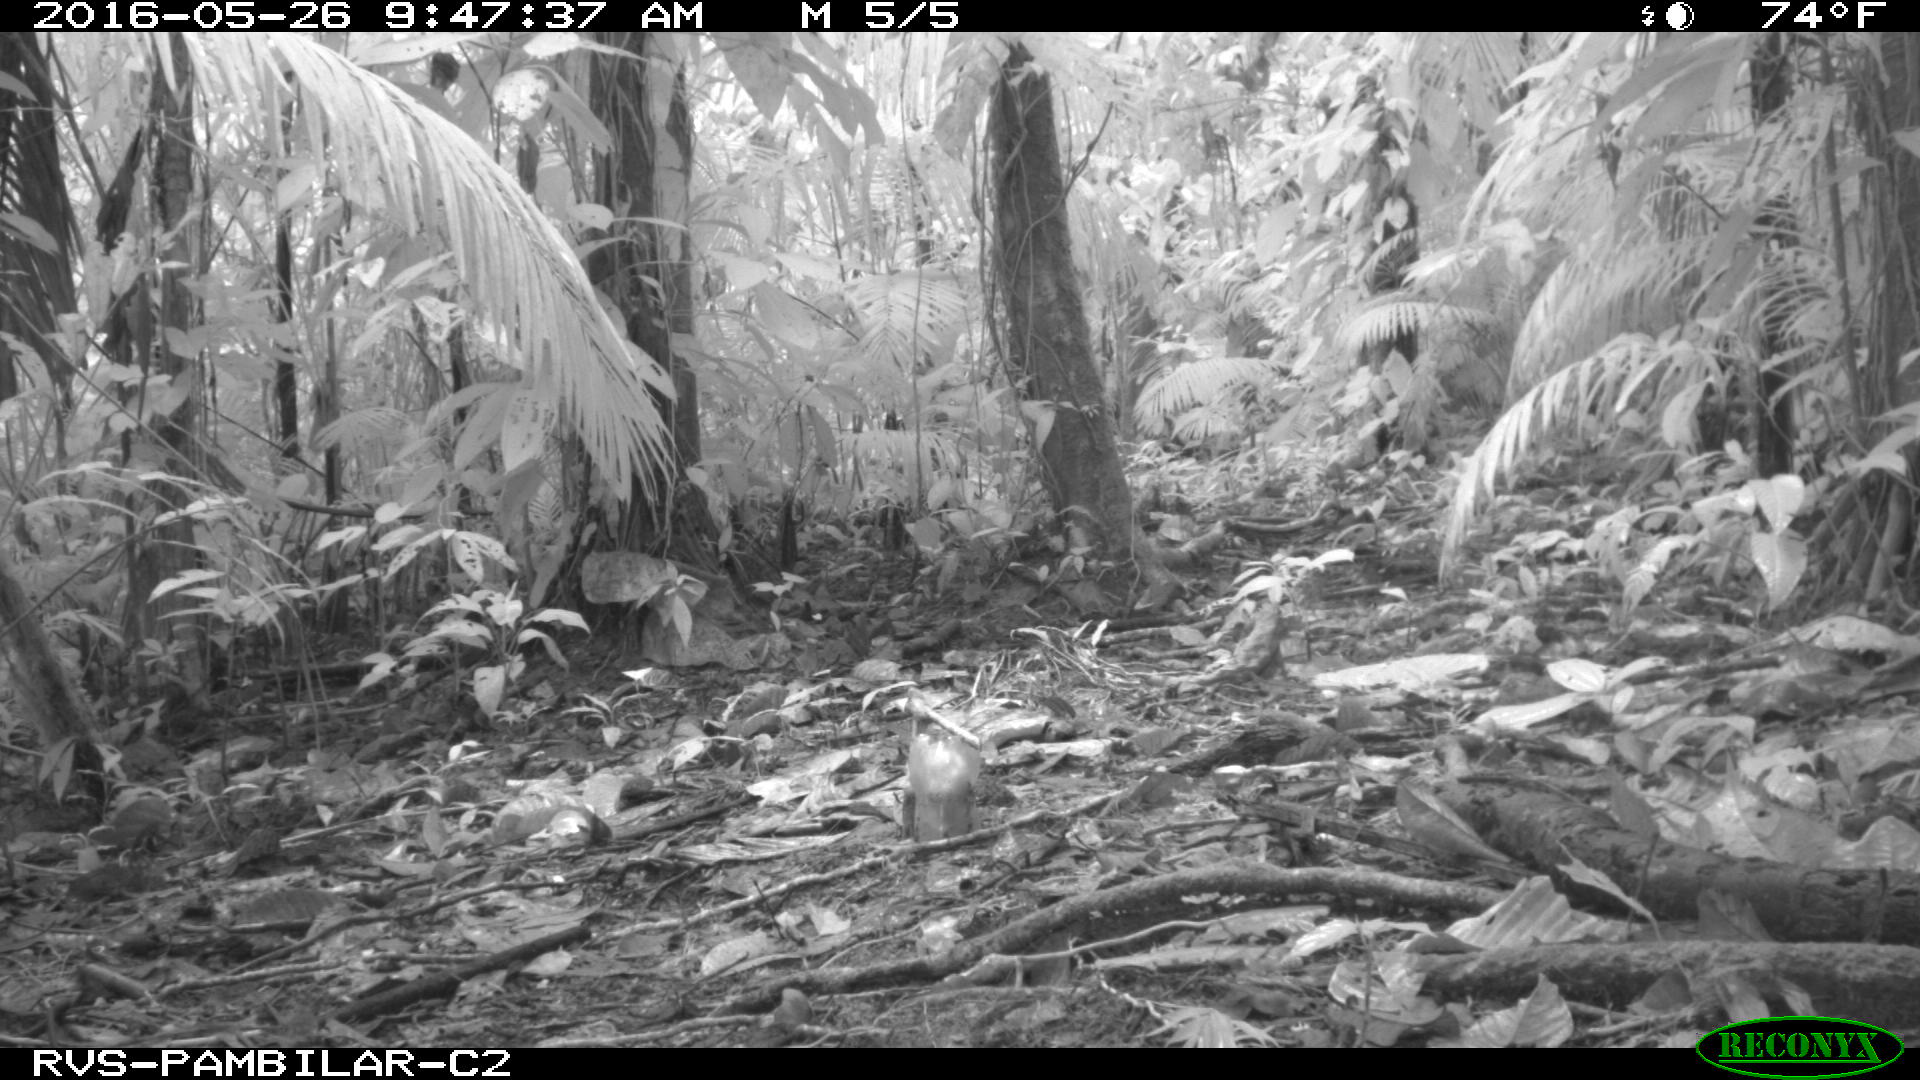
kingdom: Animalia
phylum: Chordata
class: Mammalia
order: Rodentia
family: Dasyproctidae
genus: Dasyprocta
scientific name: Dasyprocta punctata
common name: Central american agouti
